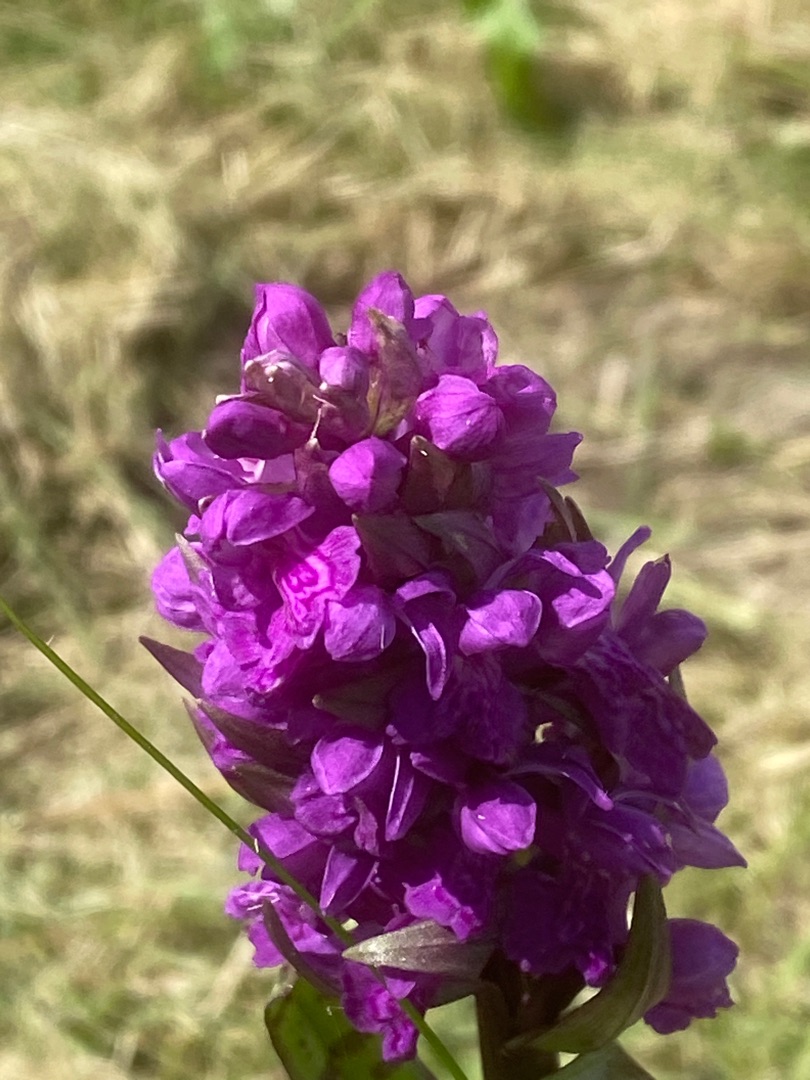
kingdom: Plantae
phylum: Tracheophyta
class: Liliopsida
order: Asparagales
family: Orchidaceae
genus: Dactylorhiza
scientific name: Dactylorhiza majalis
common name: Maj-gøgeurt
